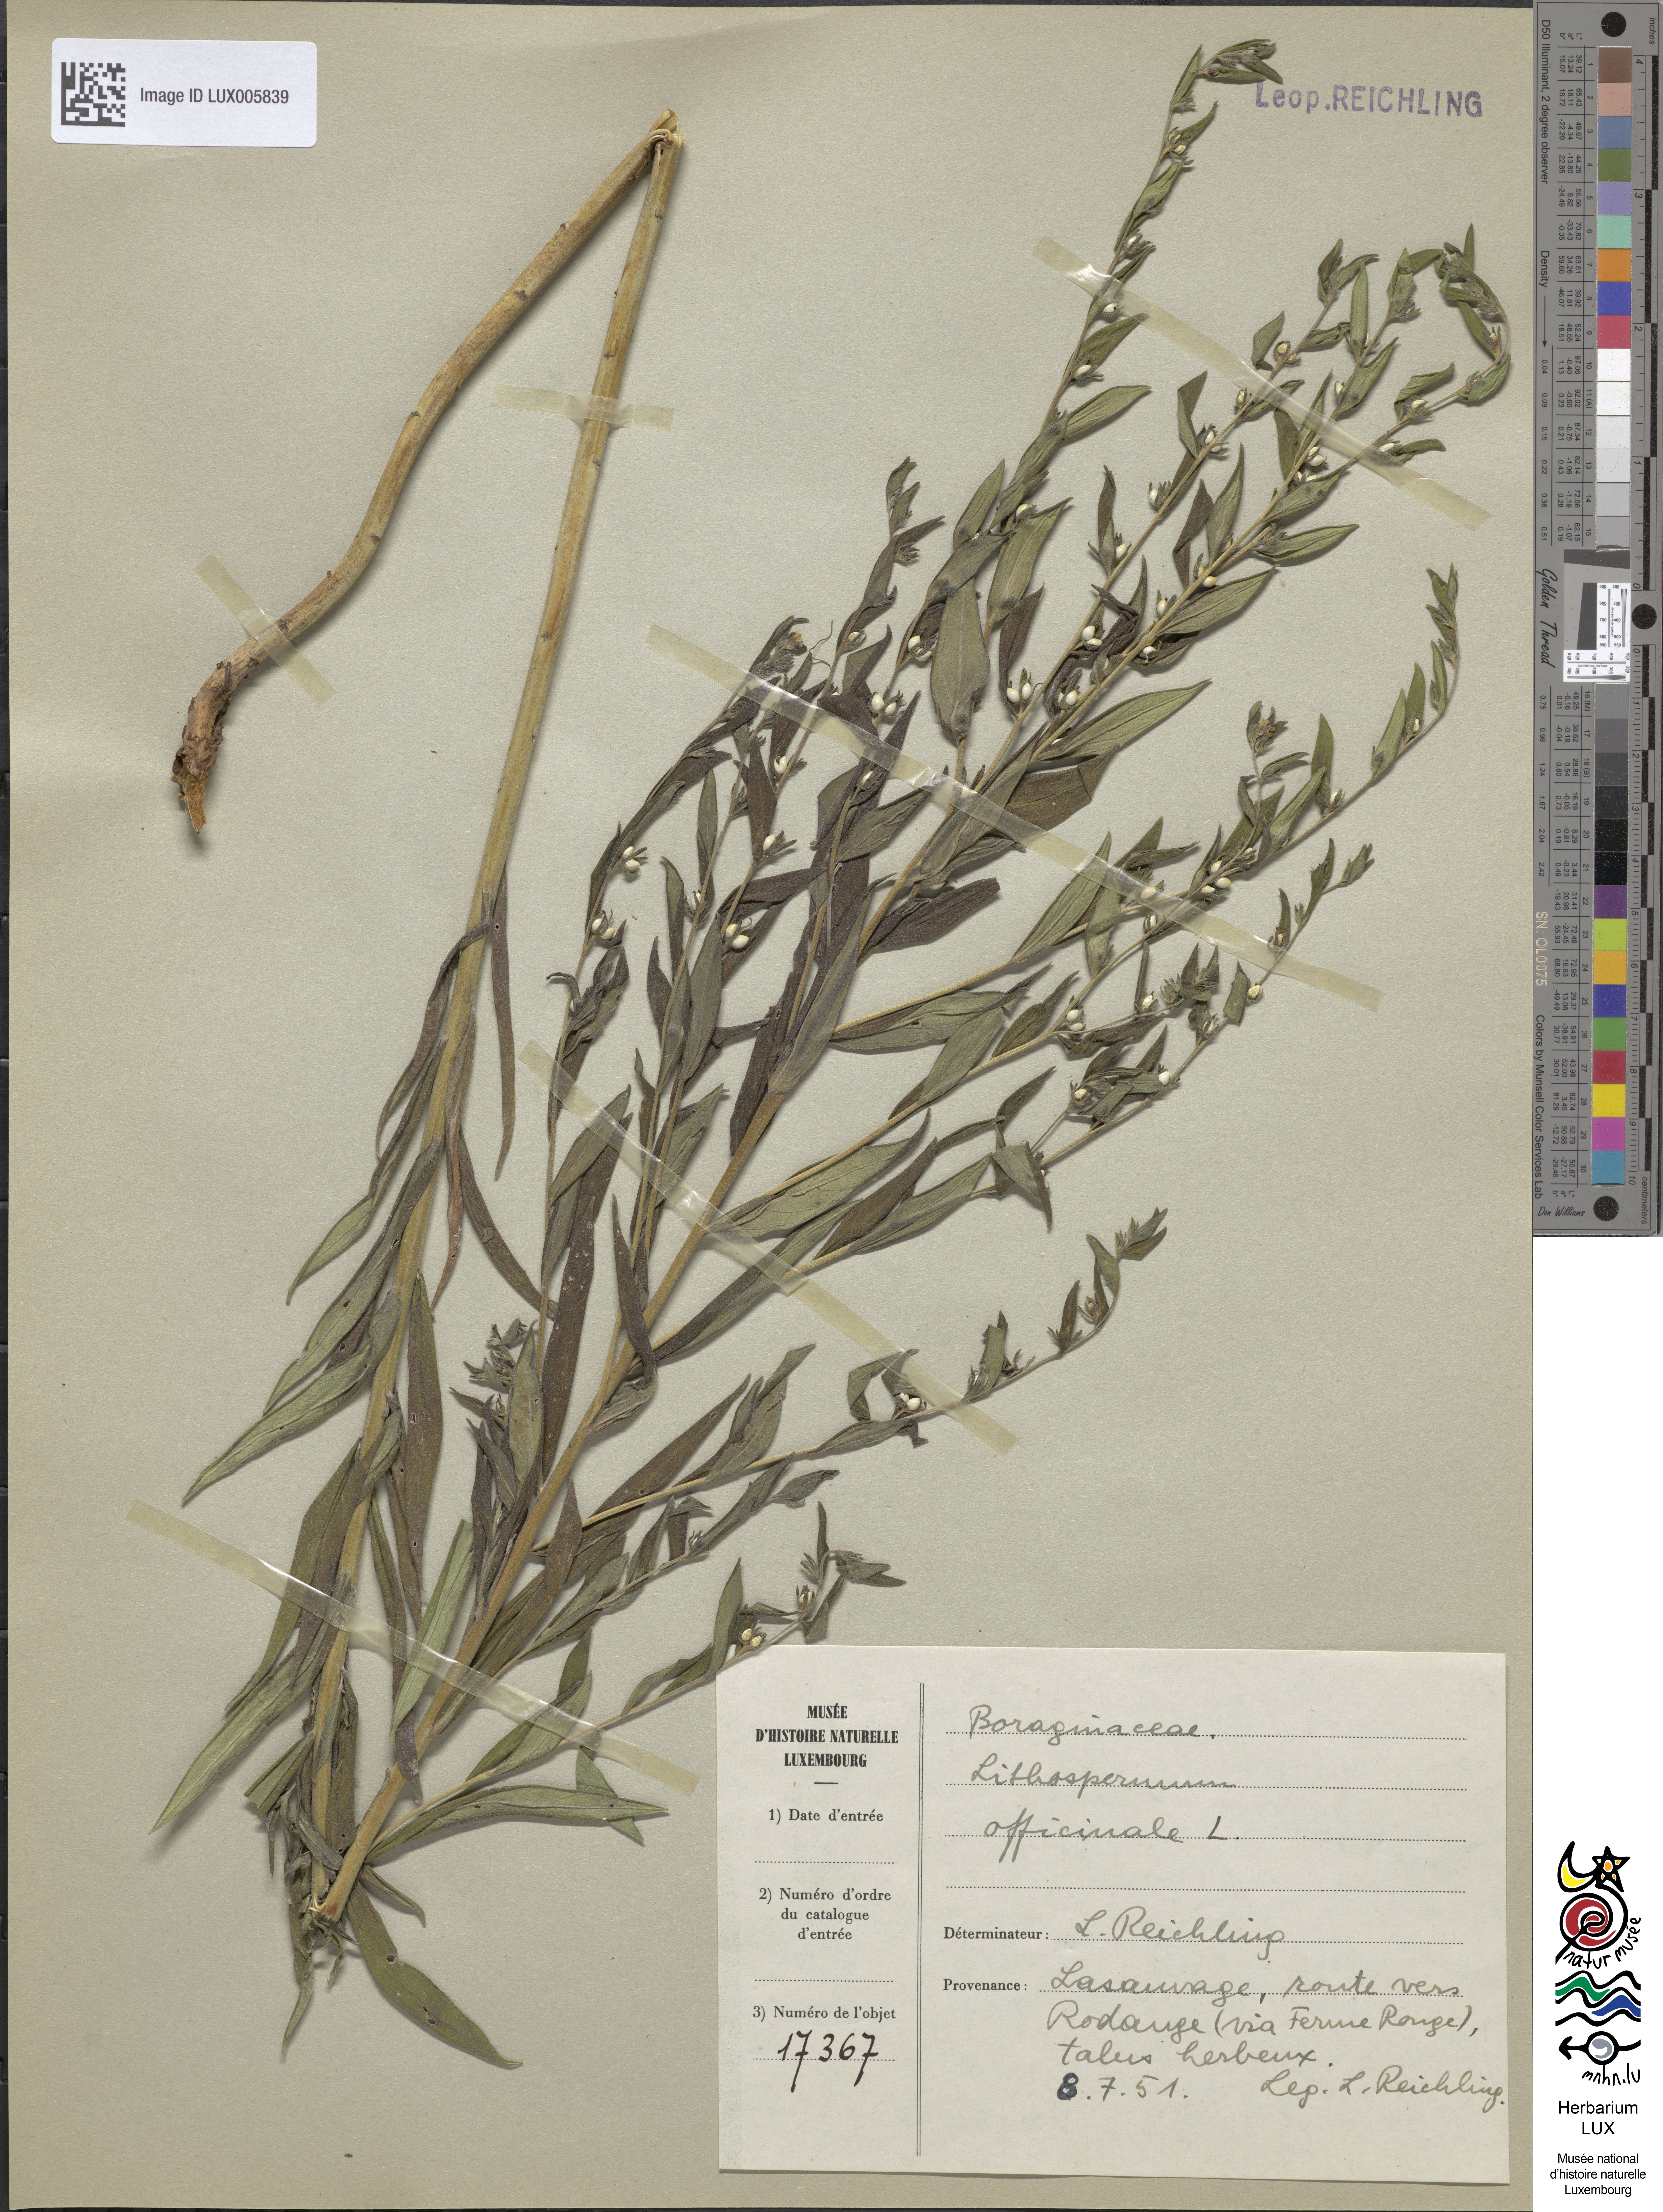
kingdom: Plantae
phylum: Tracheophyta
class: Magnoliopsida
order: Boraginales
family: Boraginaceae
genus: Lithospermum
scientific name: Lithospermum officinale
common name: Common gromwell
